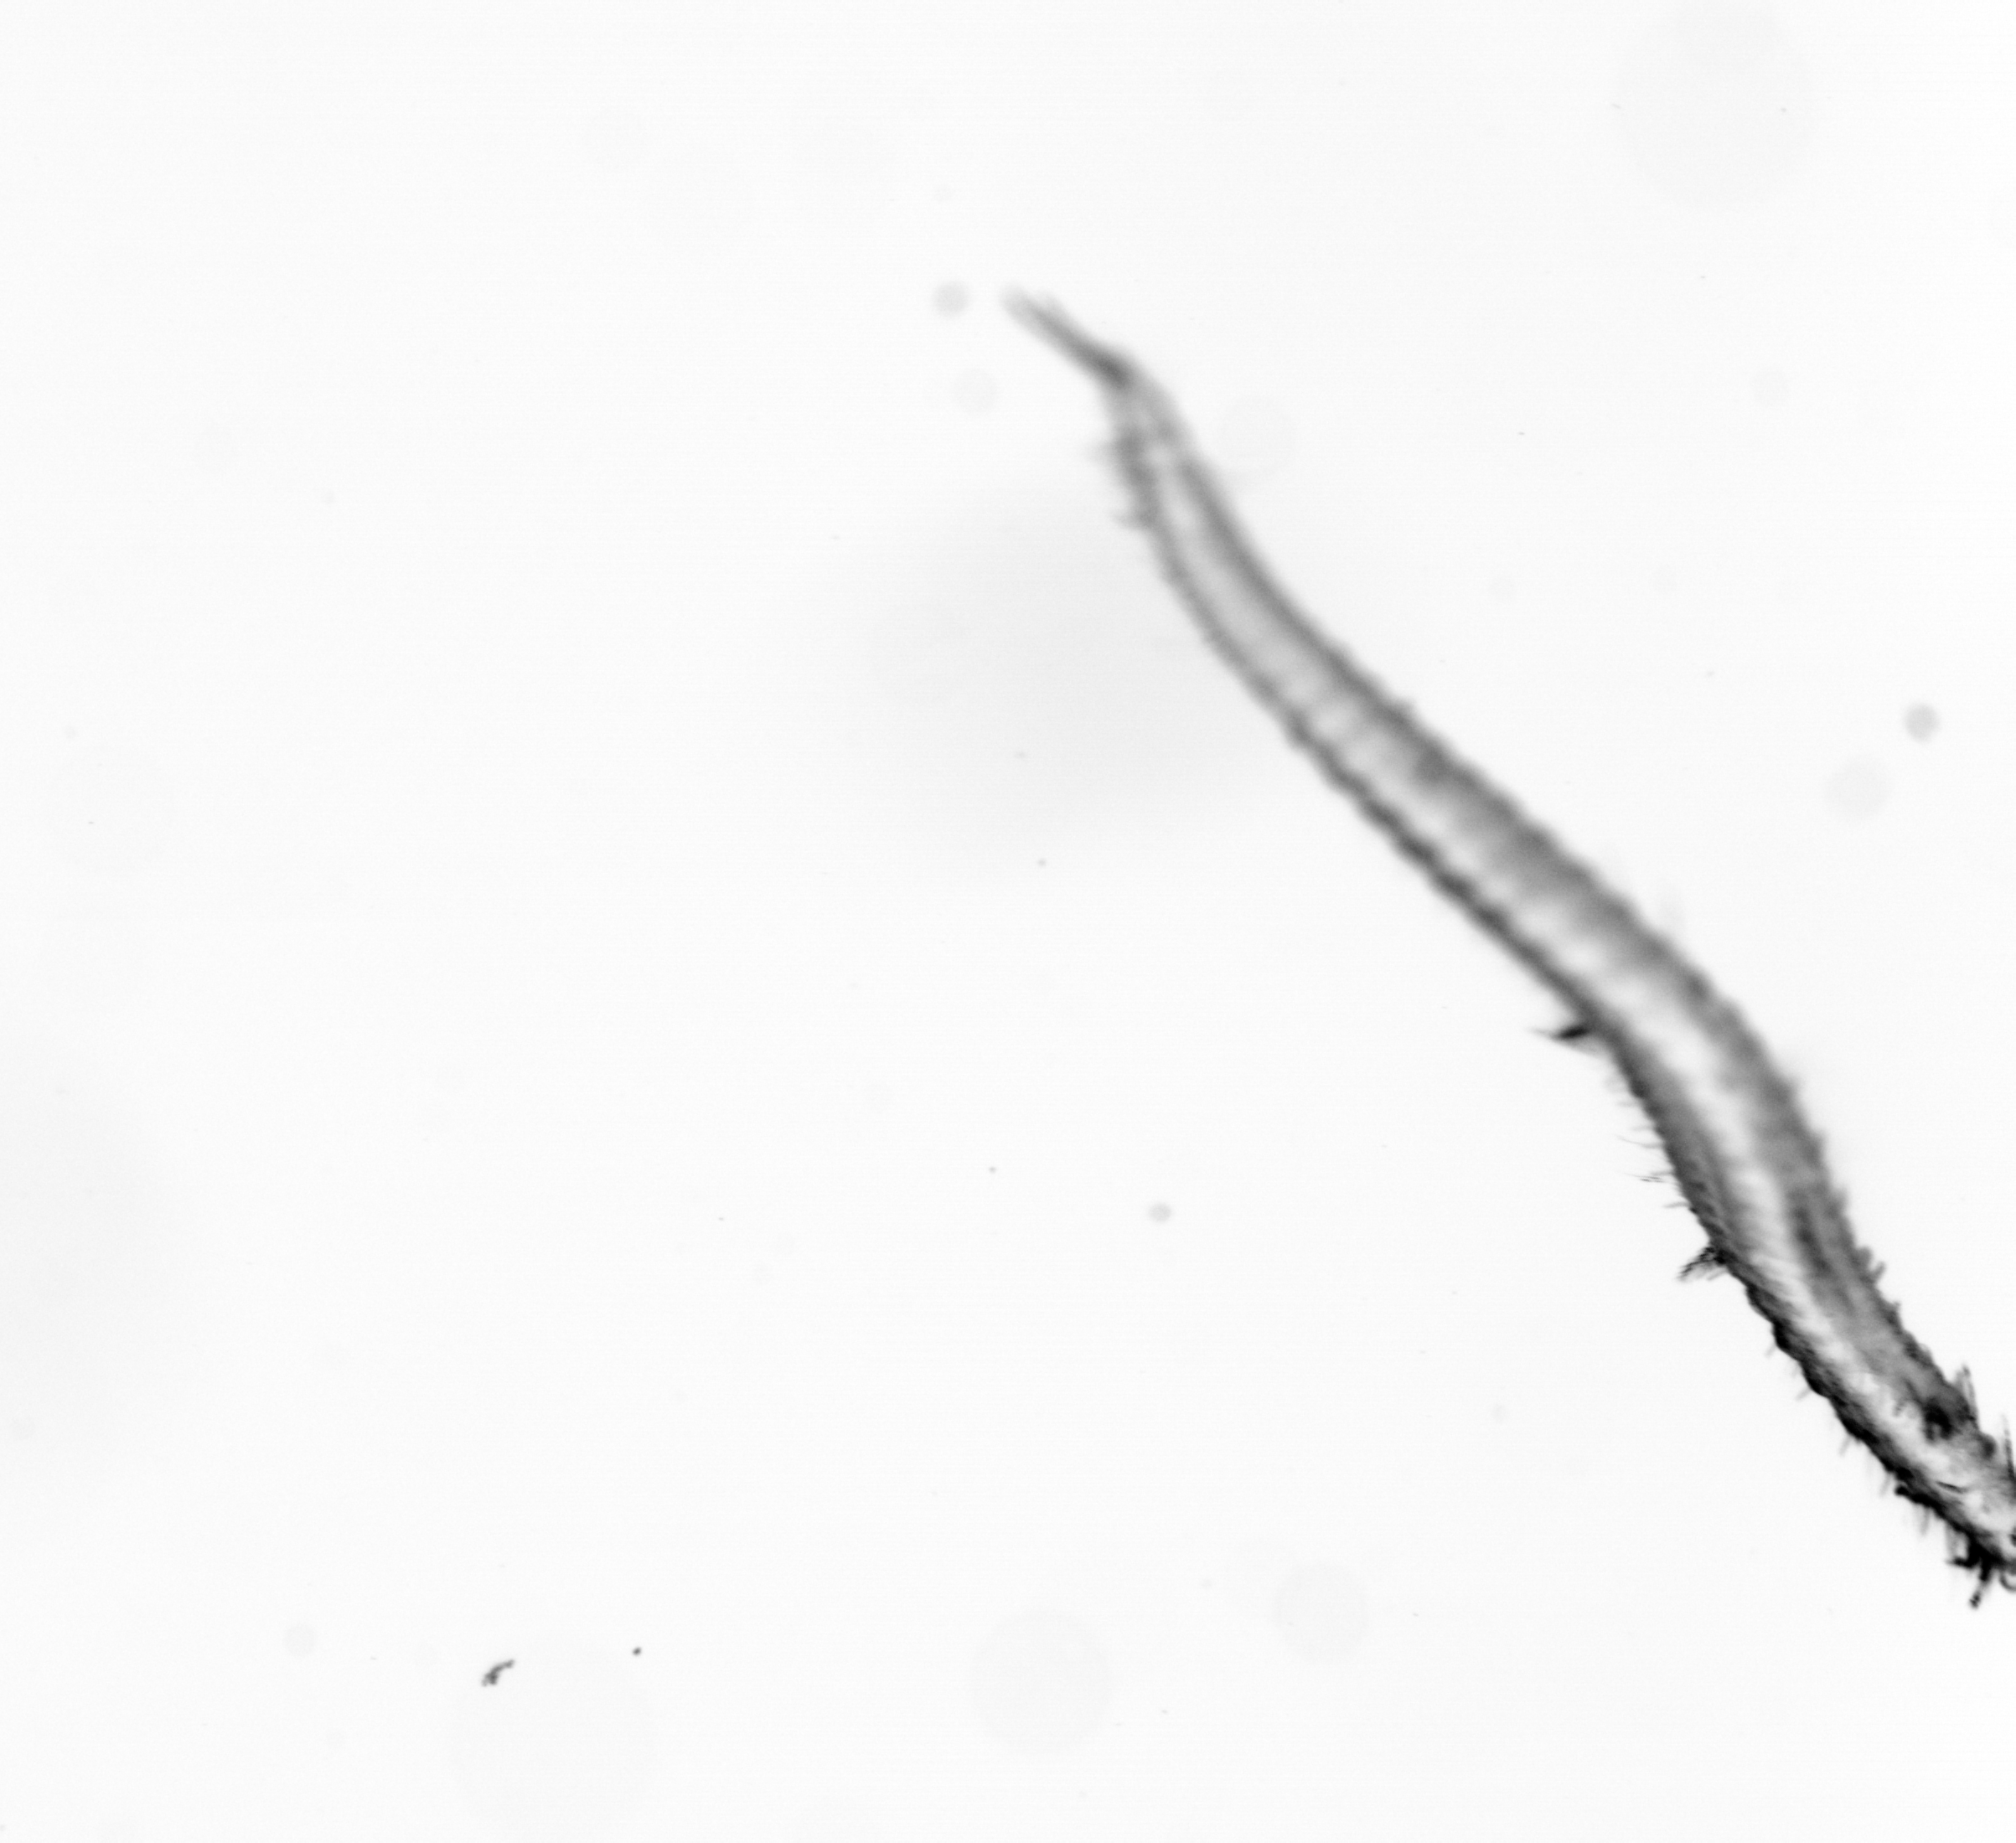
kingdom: Animalia
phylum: Annelida
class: Polychaeta
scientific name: Polychaeta
